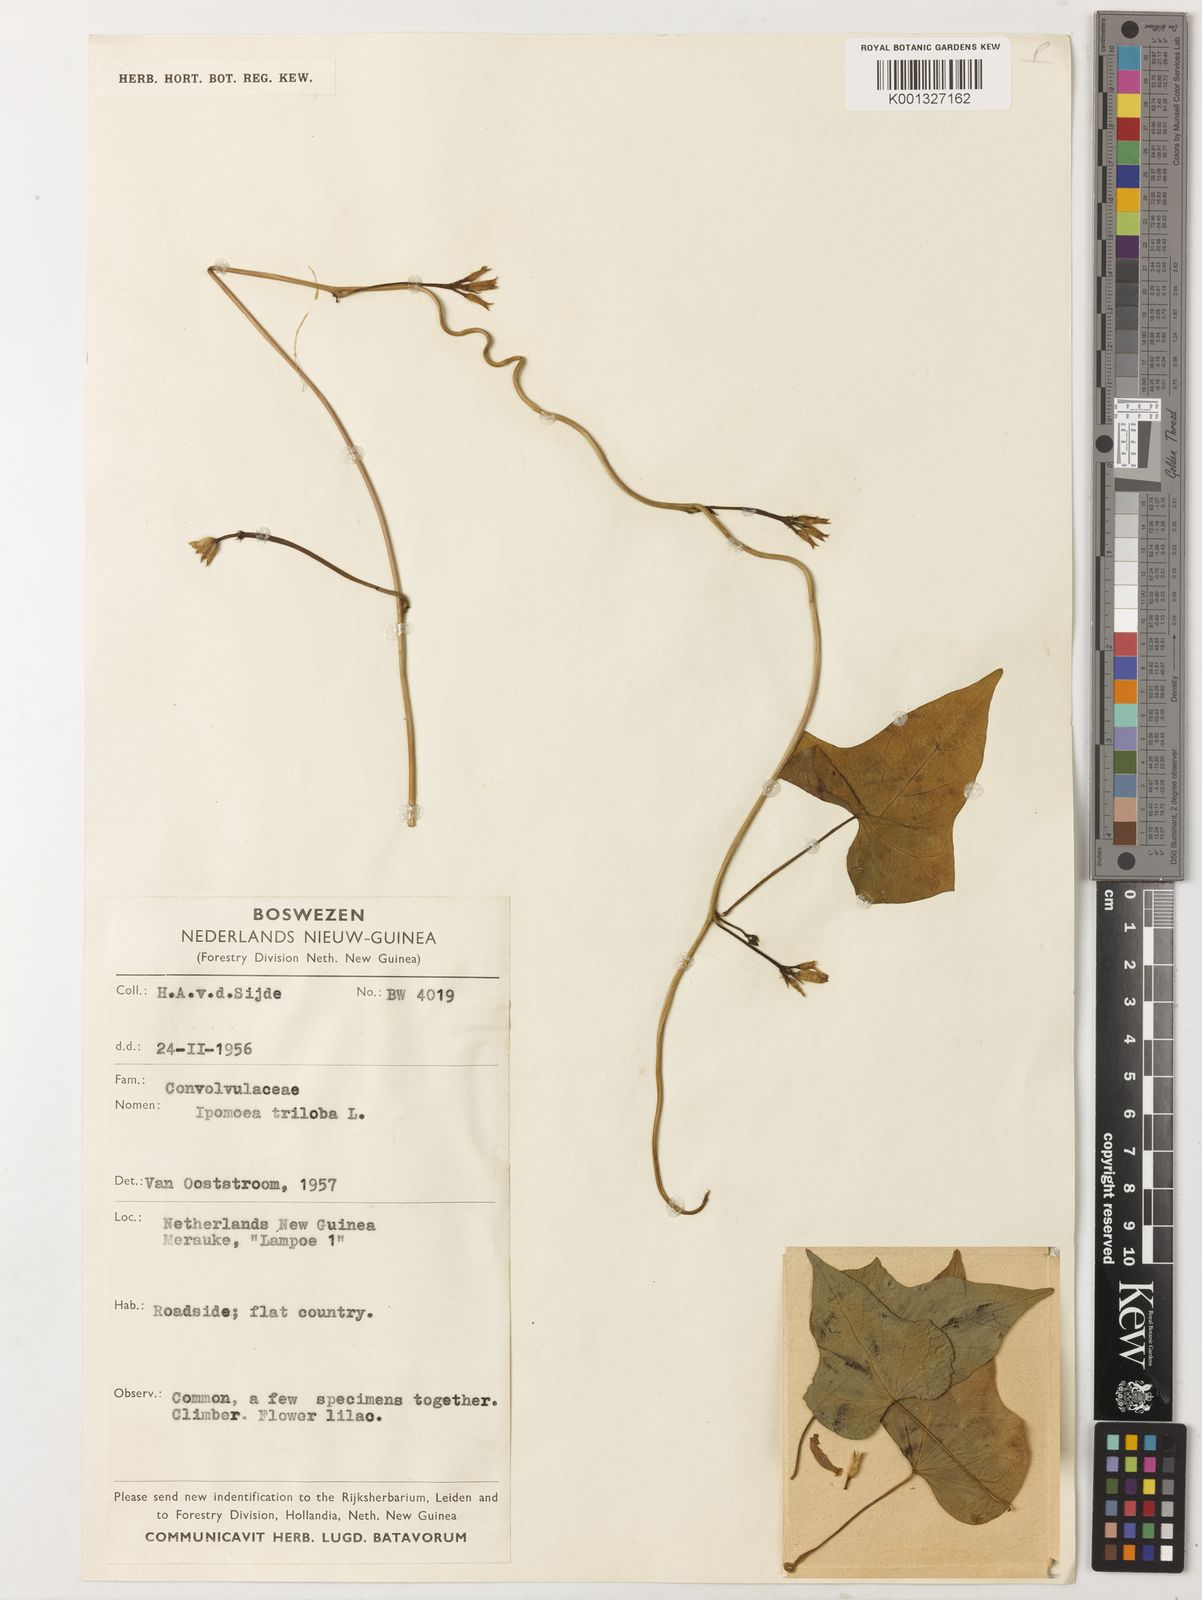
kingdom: Plantae
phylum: Tracheophyta
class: Magnoliopsida
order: Solanales
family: Convolvulaceae
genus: Ipomoea
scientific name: Ipomoea triloba
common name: Little-bell
